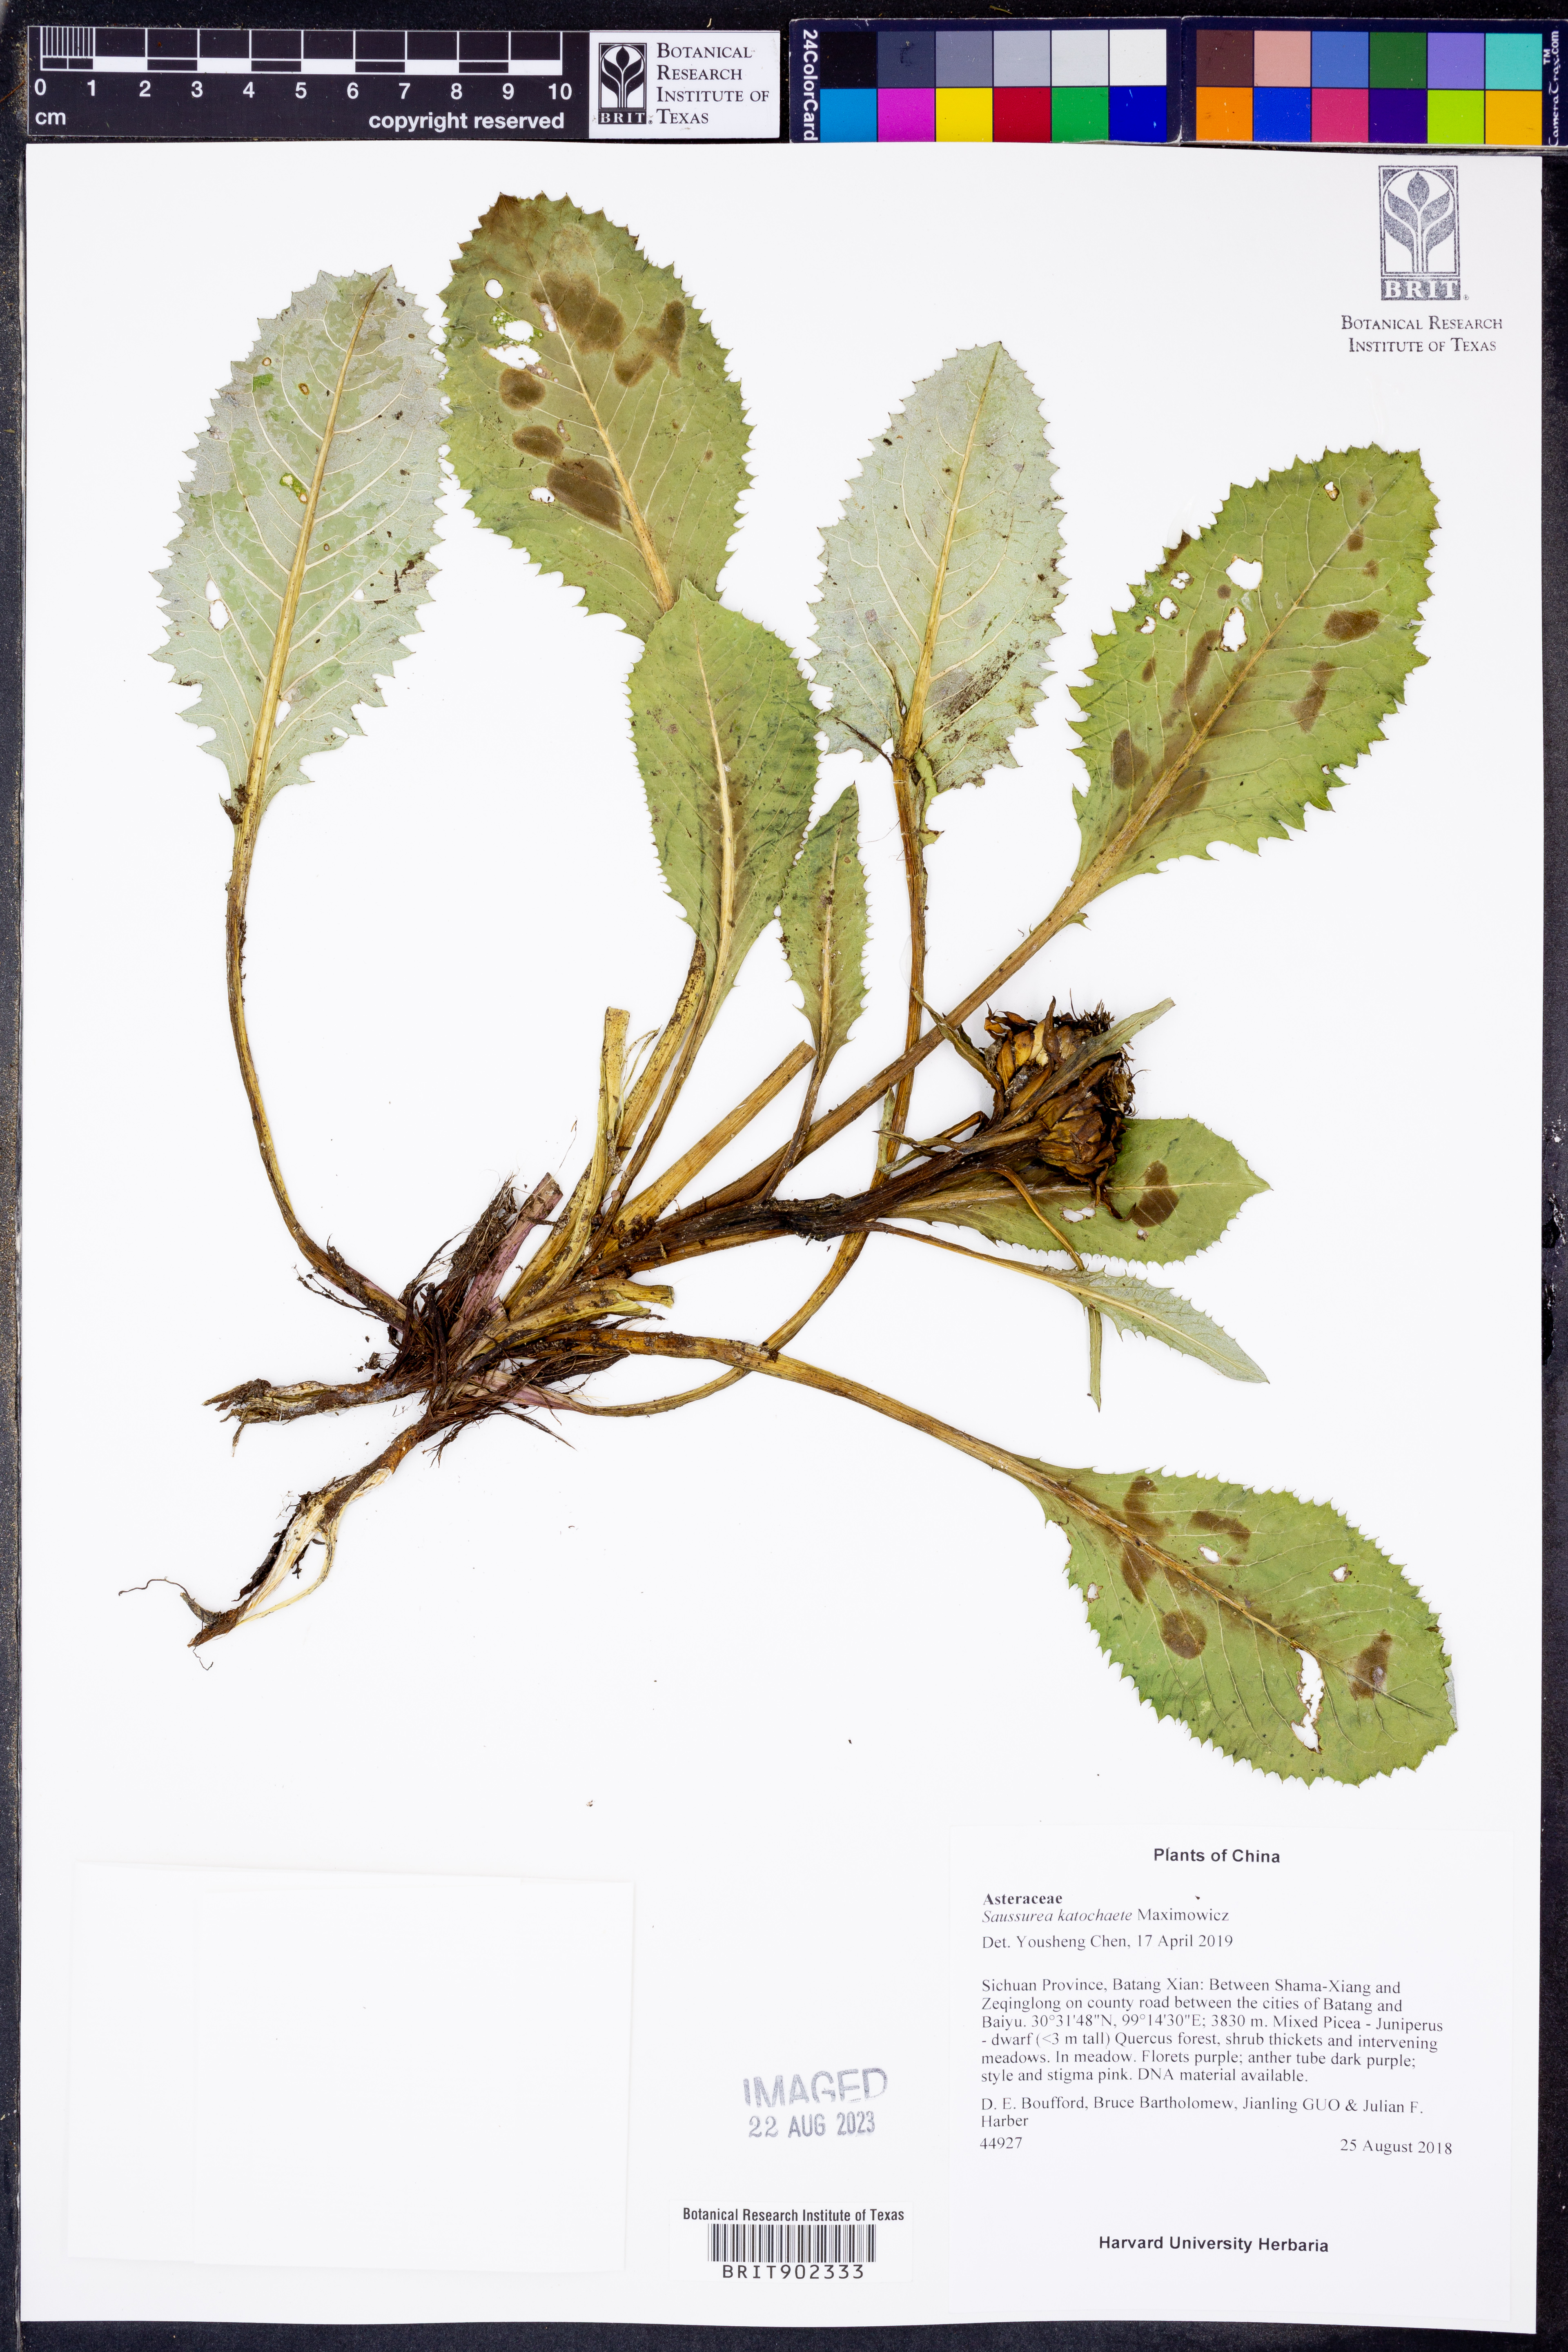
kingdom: Plantae
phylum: Tracheophyta
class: Magnoliopsida
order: Asterales
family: Asteraceae
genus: Saussurea
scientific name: Saussurea katochaete
